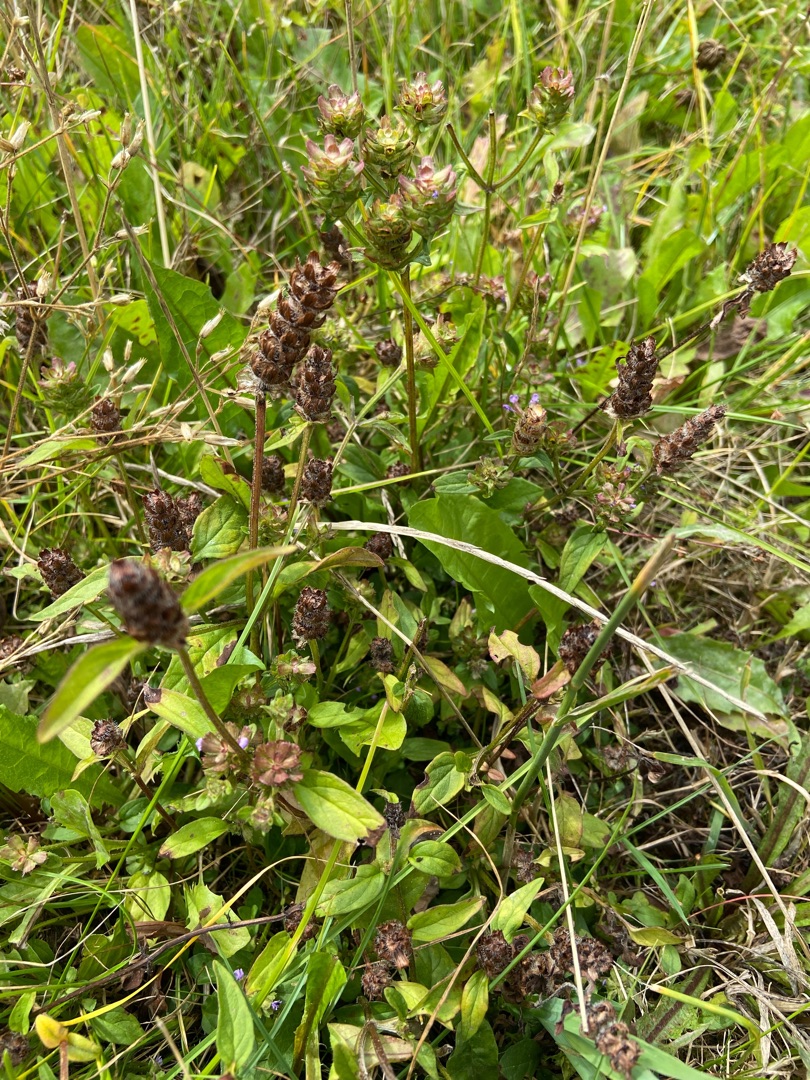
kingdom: Plantae
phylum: Tracheophyta
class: Magnoliopsida
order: Lamiales
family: Lamiaceae
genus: Prunella
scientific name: Prunella vulgaris
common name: Almindelig brunelle
